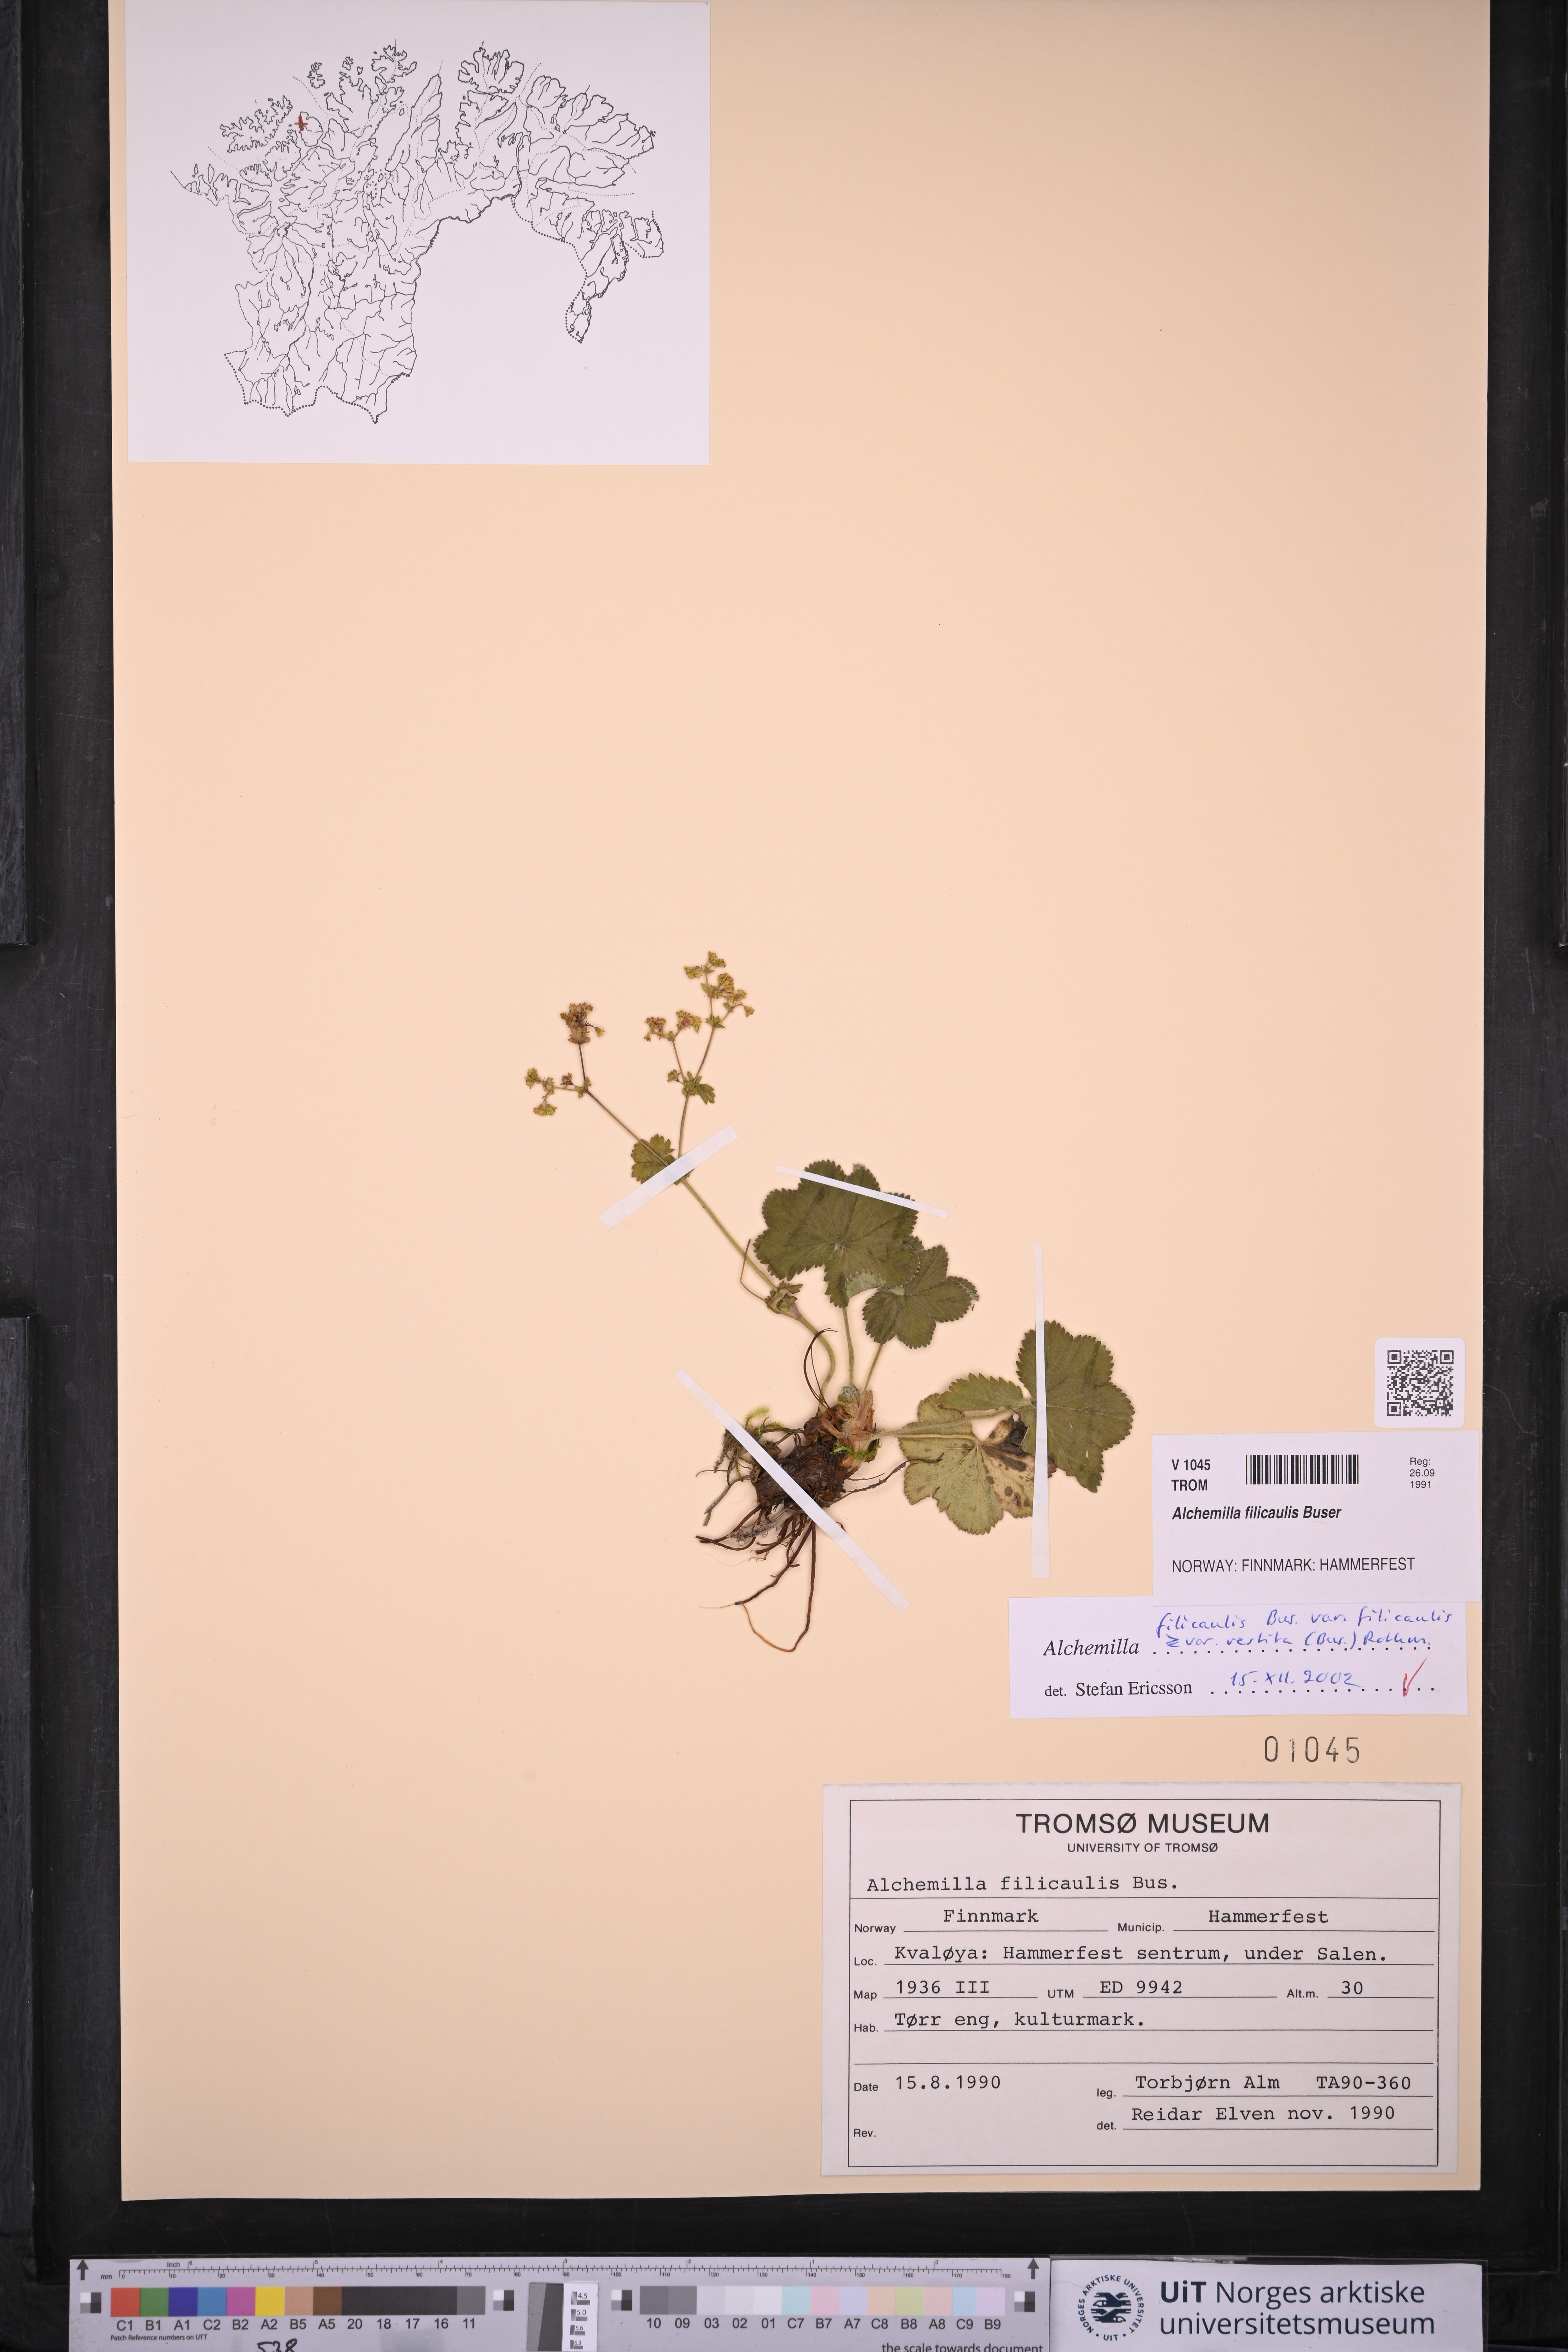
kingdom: Plantae
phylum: Tracheophyta
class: Magnoliopsida
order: Rosales
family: Rosaceae
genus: Alchemilla
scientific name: Alchemilla filicaulis
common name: Hairy lady's-mantle
